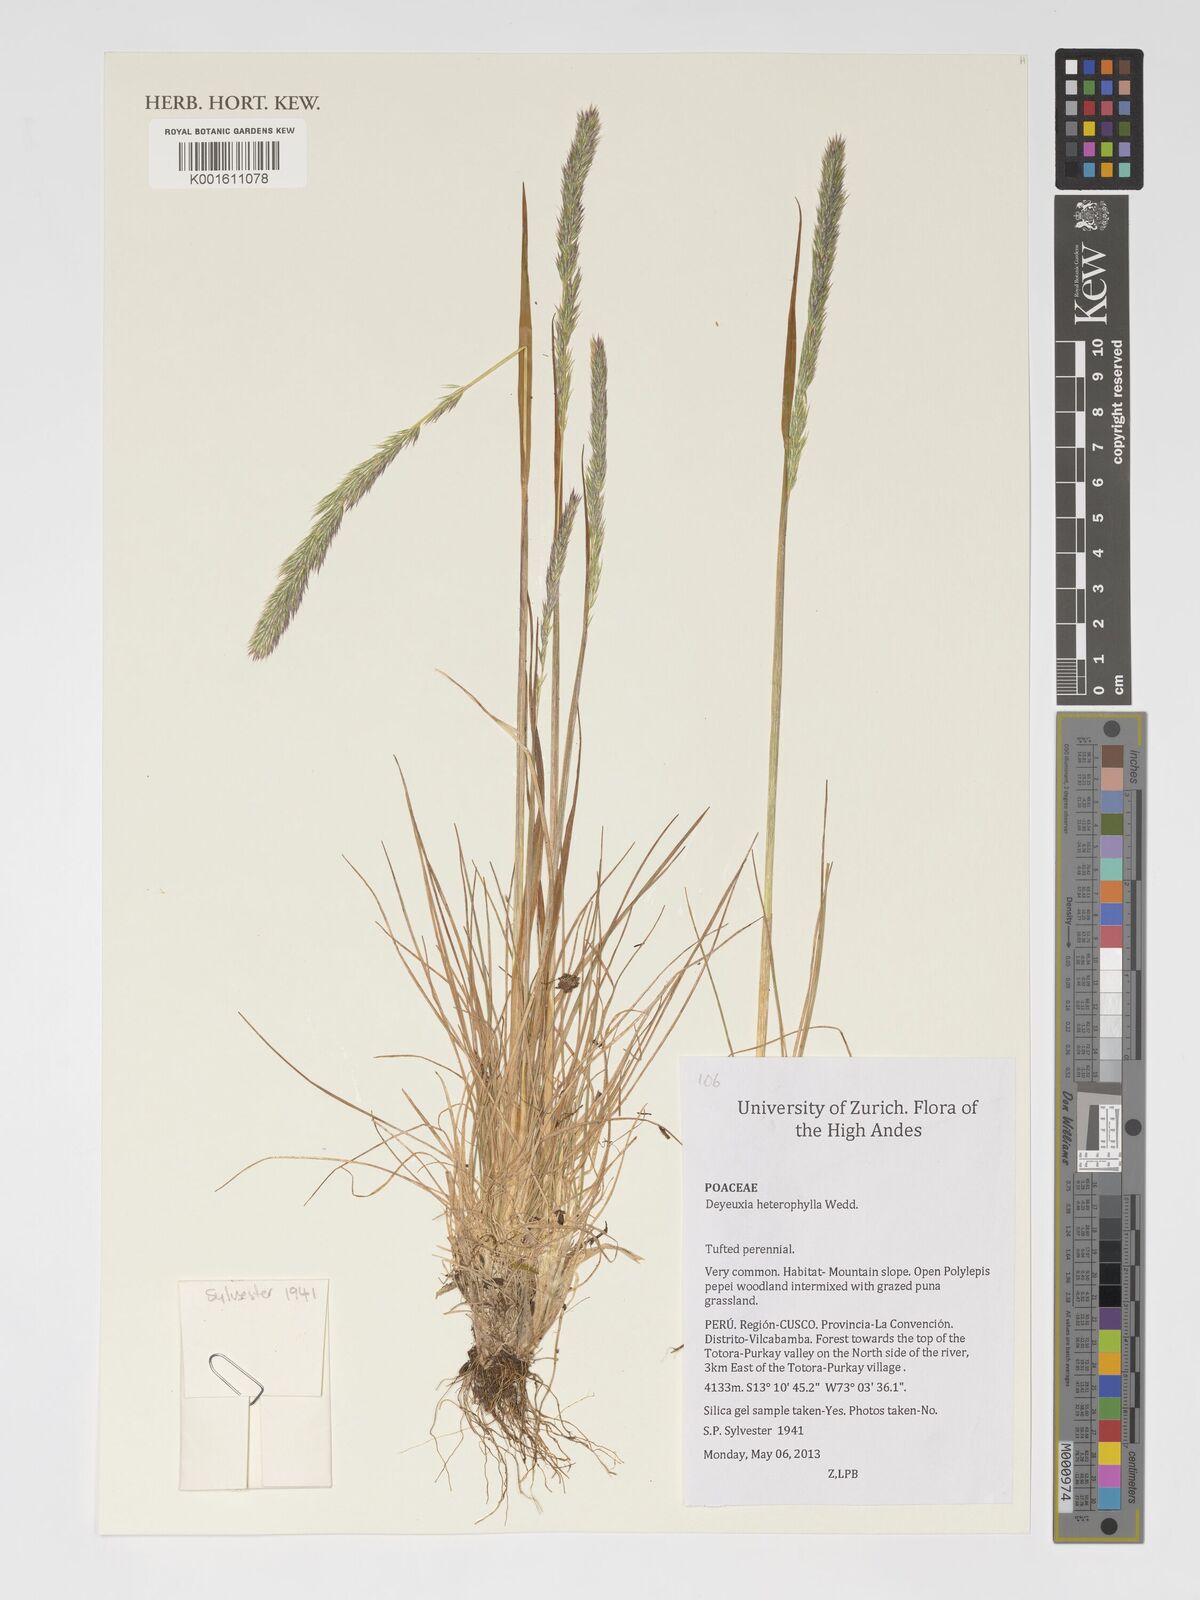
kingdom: Plantae
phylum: Tracheophyta
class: Liliopsida
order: Poales
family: Poaceae
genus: Cinnagrostis
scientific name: Cinnagrostis heterophylla
